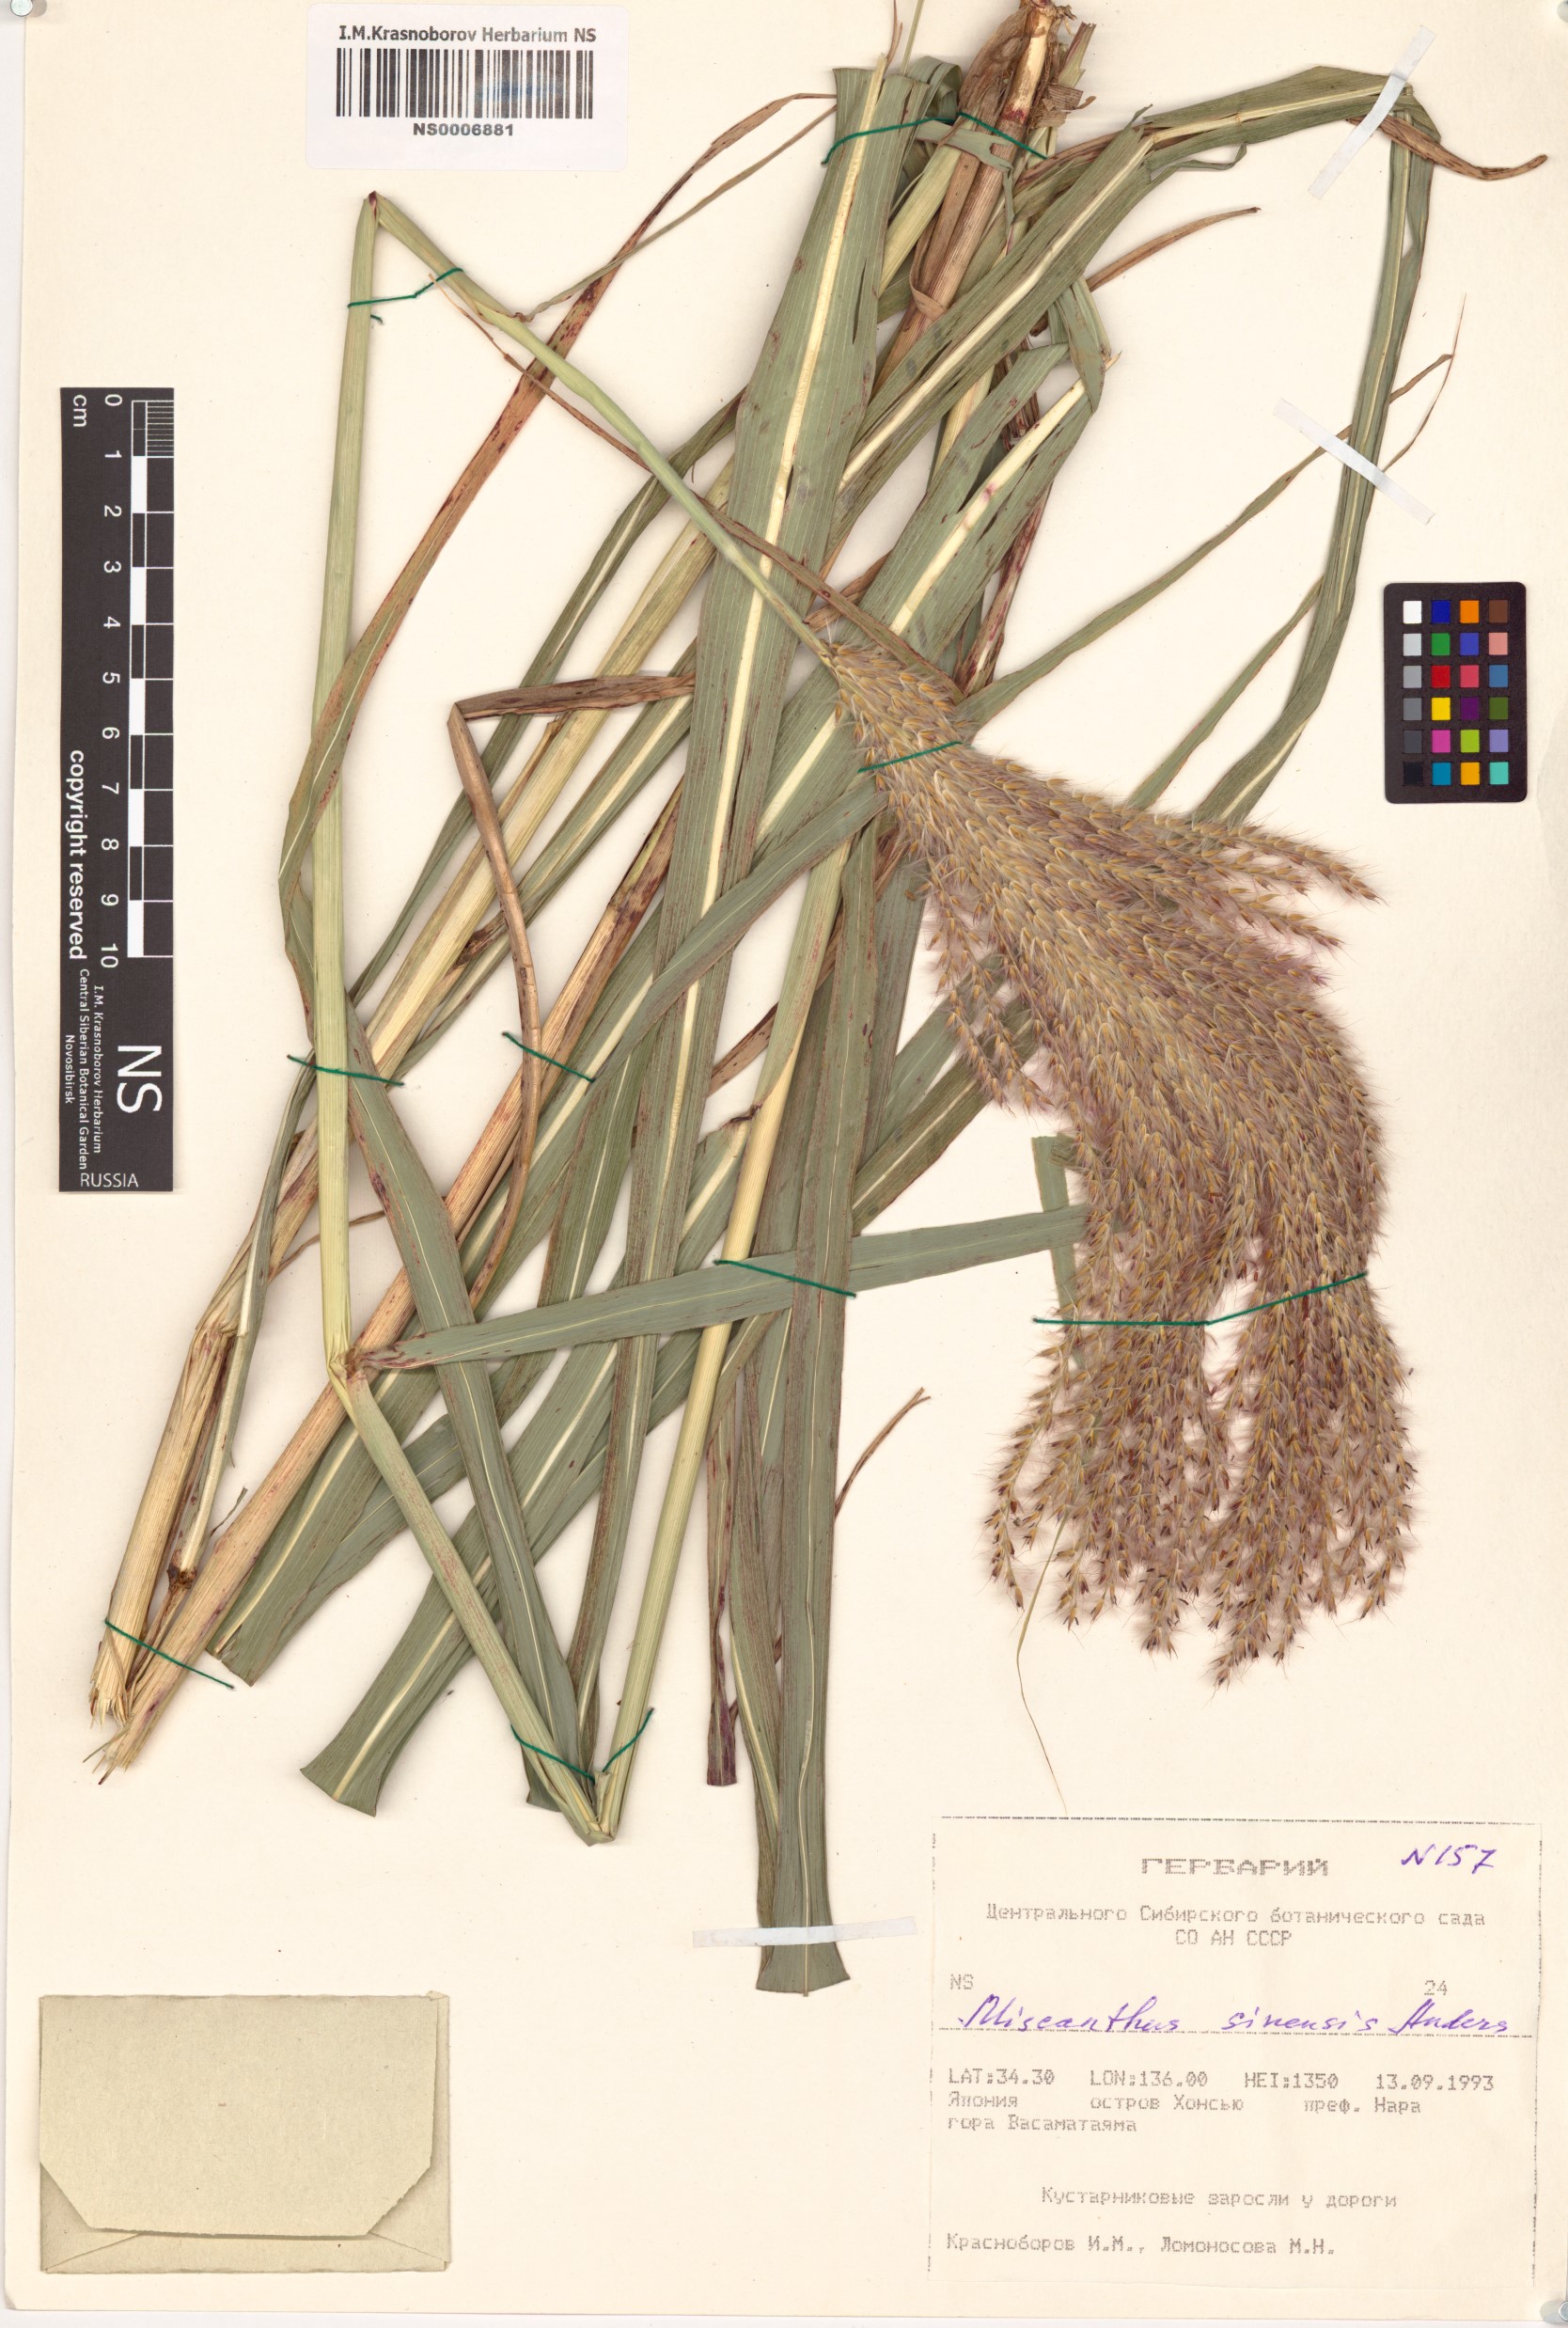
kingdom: Plantae
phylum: Tracheophyta
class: Liliopsida
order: Poales
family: Poaceae
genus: Miscanthus
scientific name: Miscanthus sinensis
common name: Chinese silvergrass
